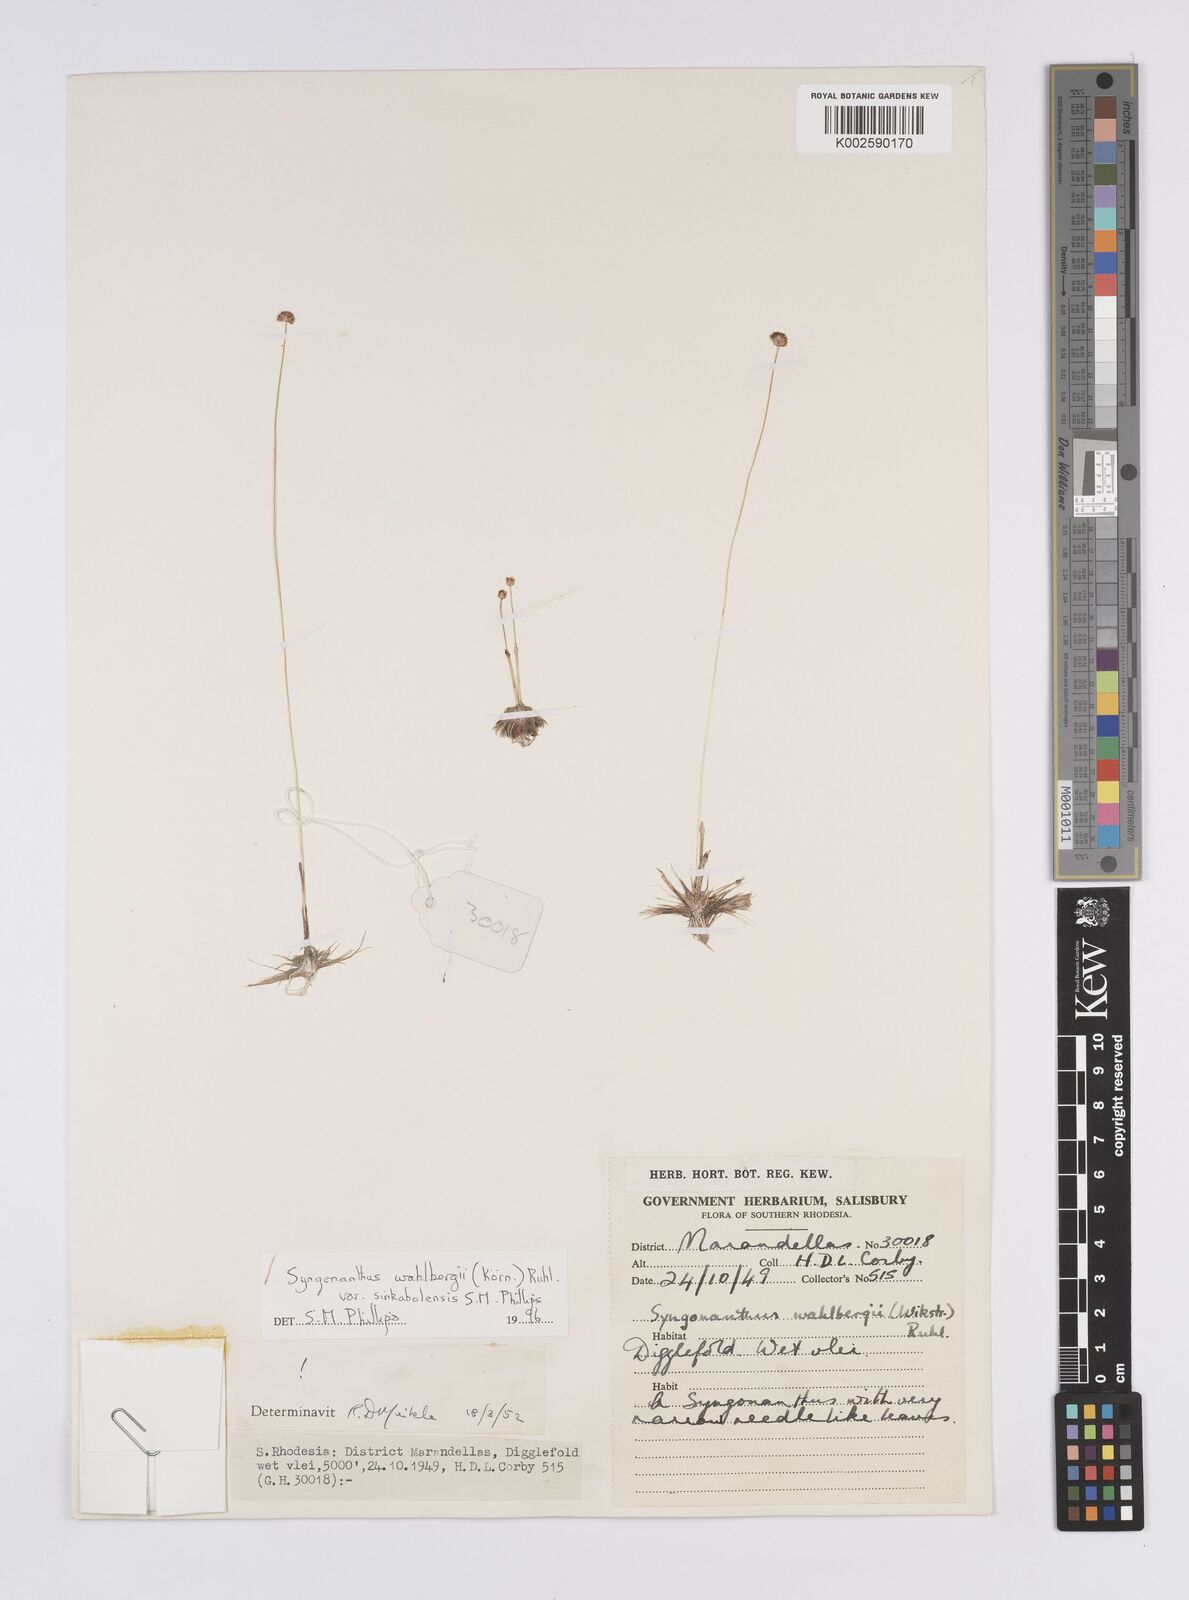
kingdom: Plantae
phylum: Tracheophyta
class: Liliopsida
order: Poales
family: Eriocaulaceae
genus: Syngonanthus
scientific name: Syngonanthus wahlbergii
